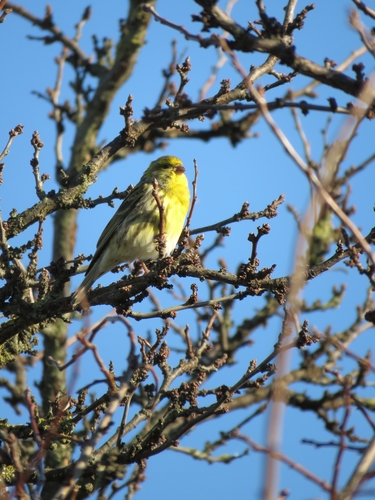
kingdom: Animalia
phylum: Chordata
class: Aves
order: Passeriformes
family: Fringillidae
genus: Serinus
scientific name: Serinus serinus
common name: European serin
